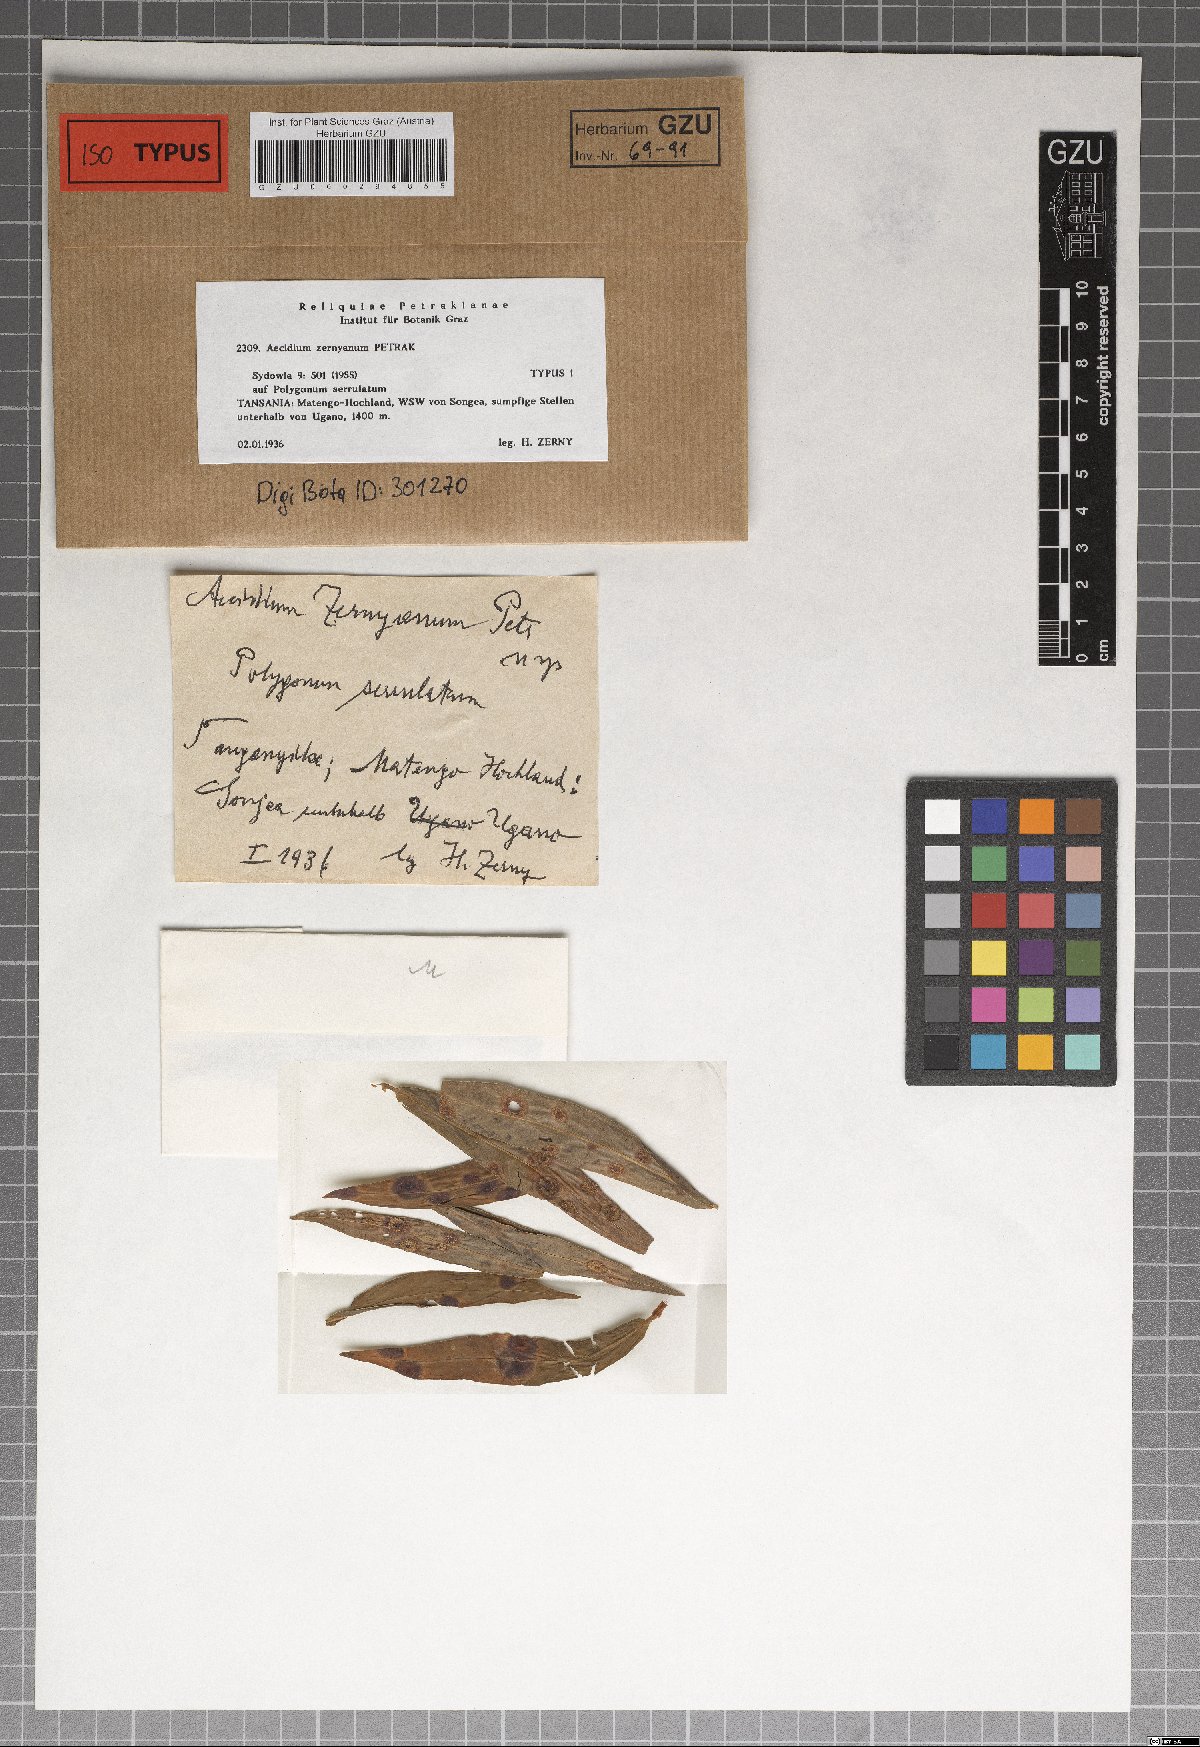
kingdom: Fungi
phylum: Basidiomycota
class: Pucciniomycetes
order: Pucciniales
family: Pucciniaceae
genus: Aecidium
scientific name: Aecidium zernyanum
